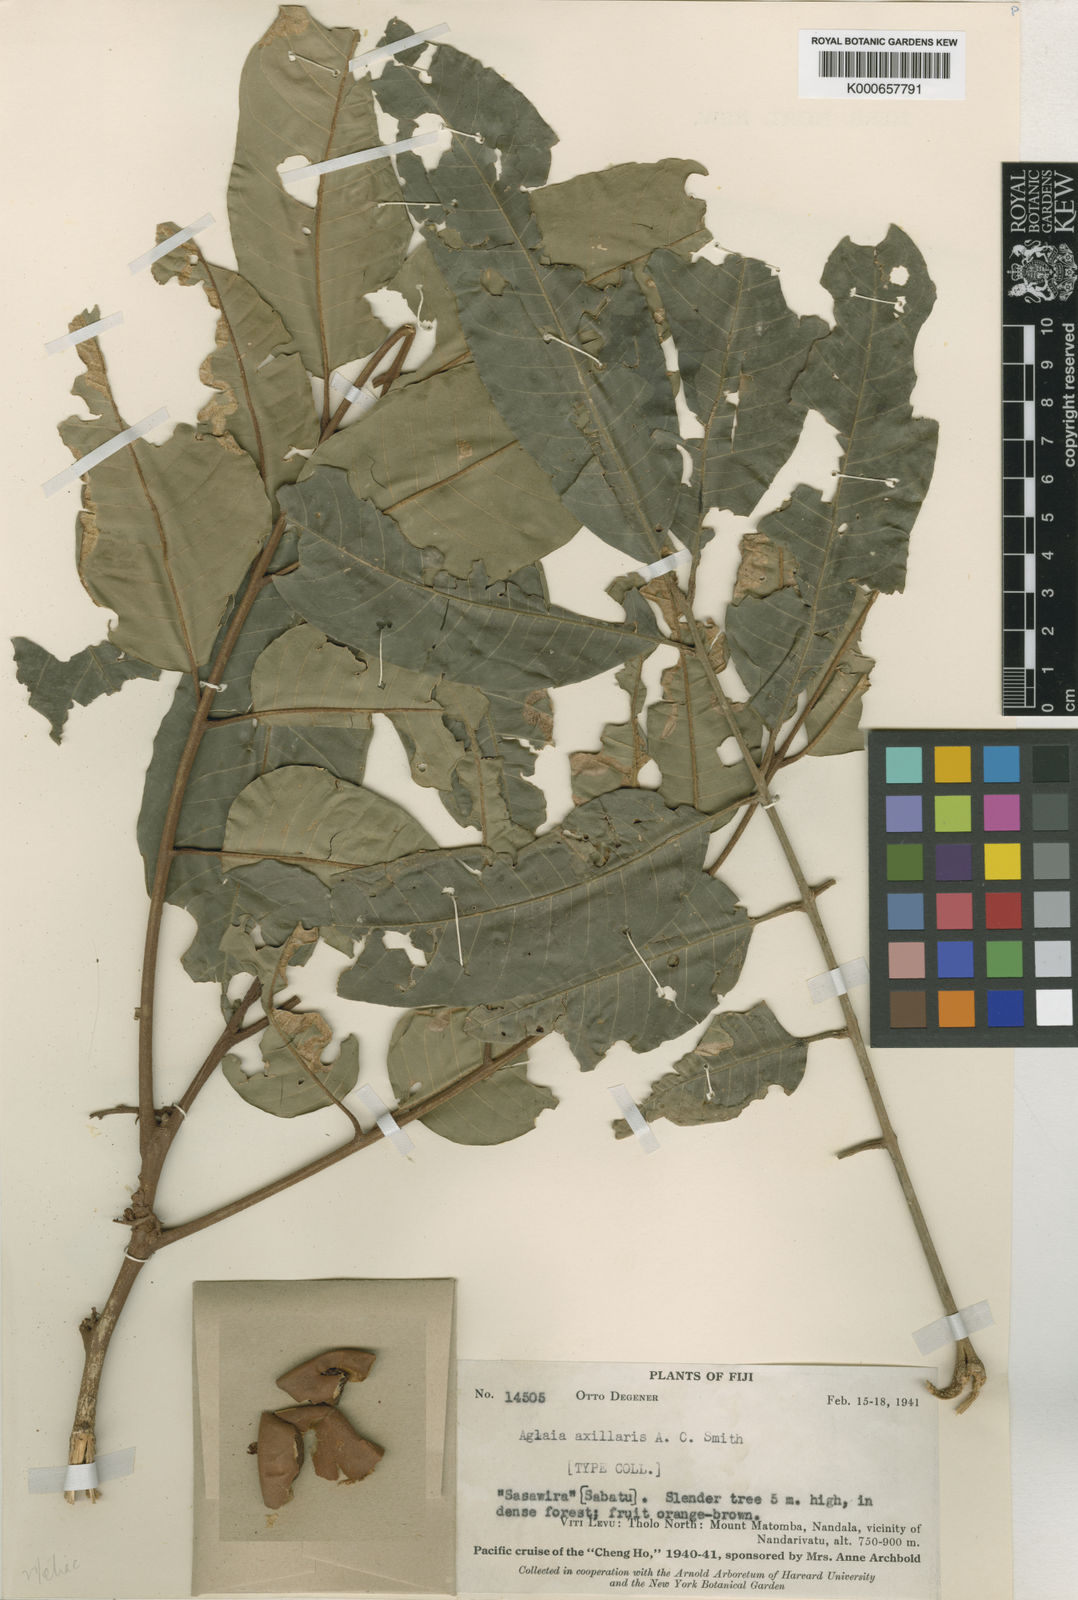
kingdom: Plantae
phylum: Tracheophyta
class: Magnoliopsida
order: Sapindales
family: Meliaceae
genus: Aglaia
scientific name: Aglaia vitiensis
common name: Lindiyango
